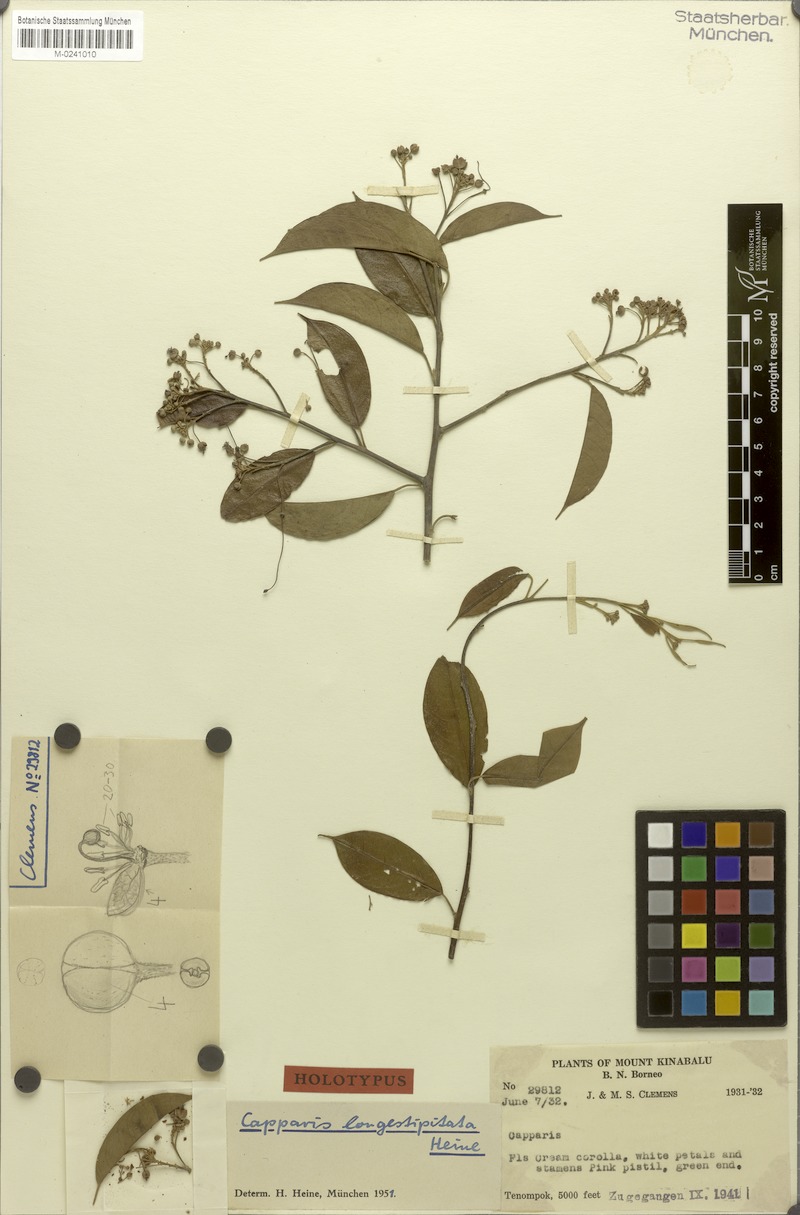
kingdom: Plantae
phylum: Tracheophyta
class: Magnoliopsida
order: Brassicales
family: Capparaceae
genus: Capparis
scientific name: Capparis longistipitata
